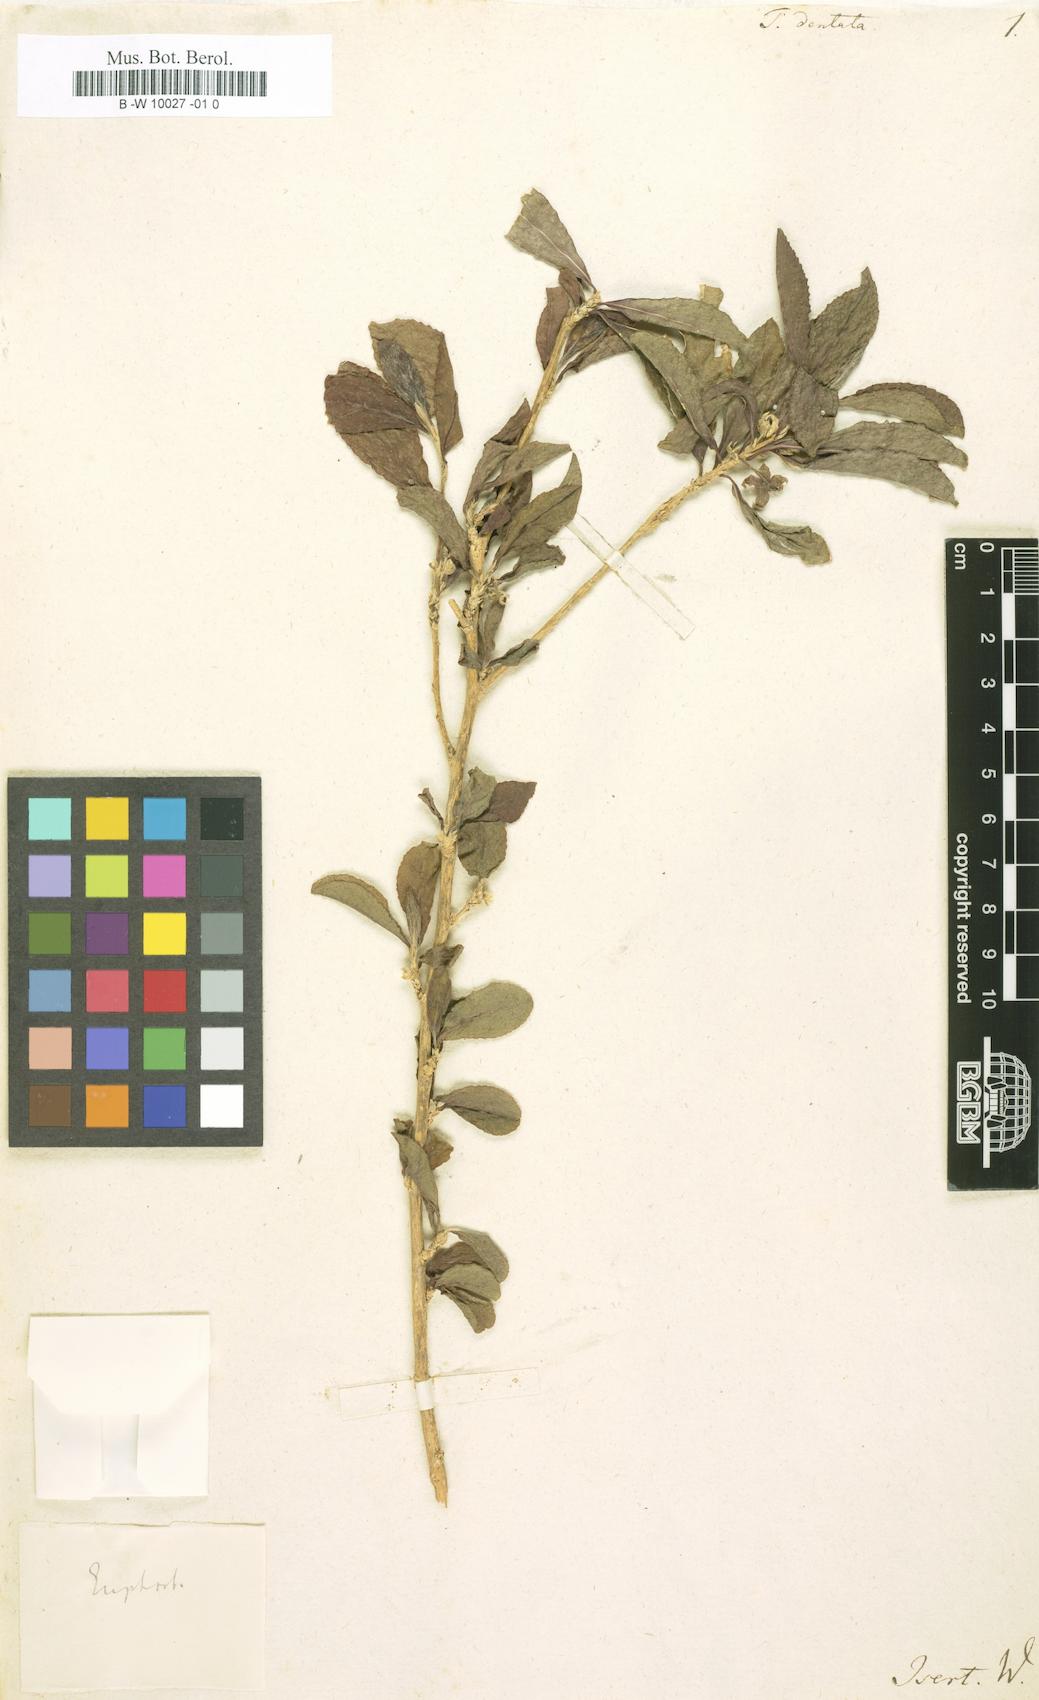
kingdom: Plantae
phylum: Tracheophyta
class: Magnoliopsida
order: Ericales
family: Pentaphylacaceae
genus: Ternstroemia
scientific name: Ternstroemia dentata
